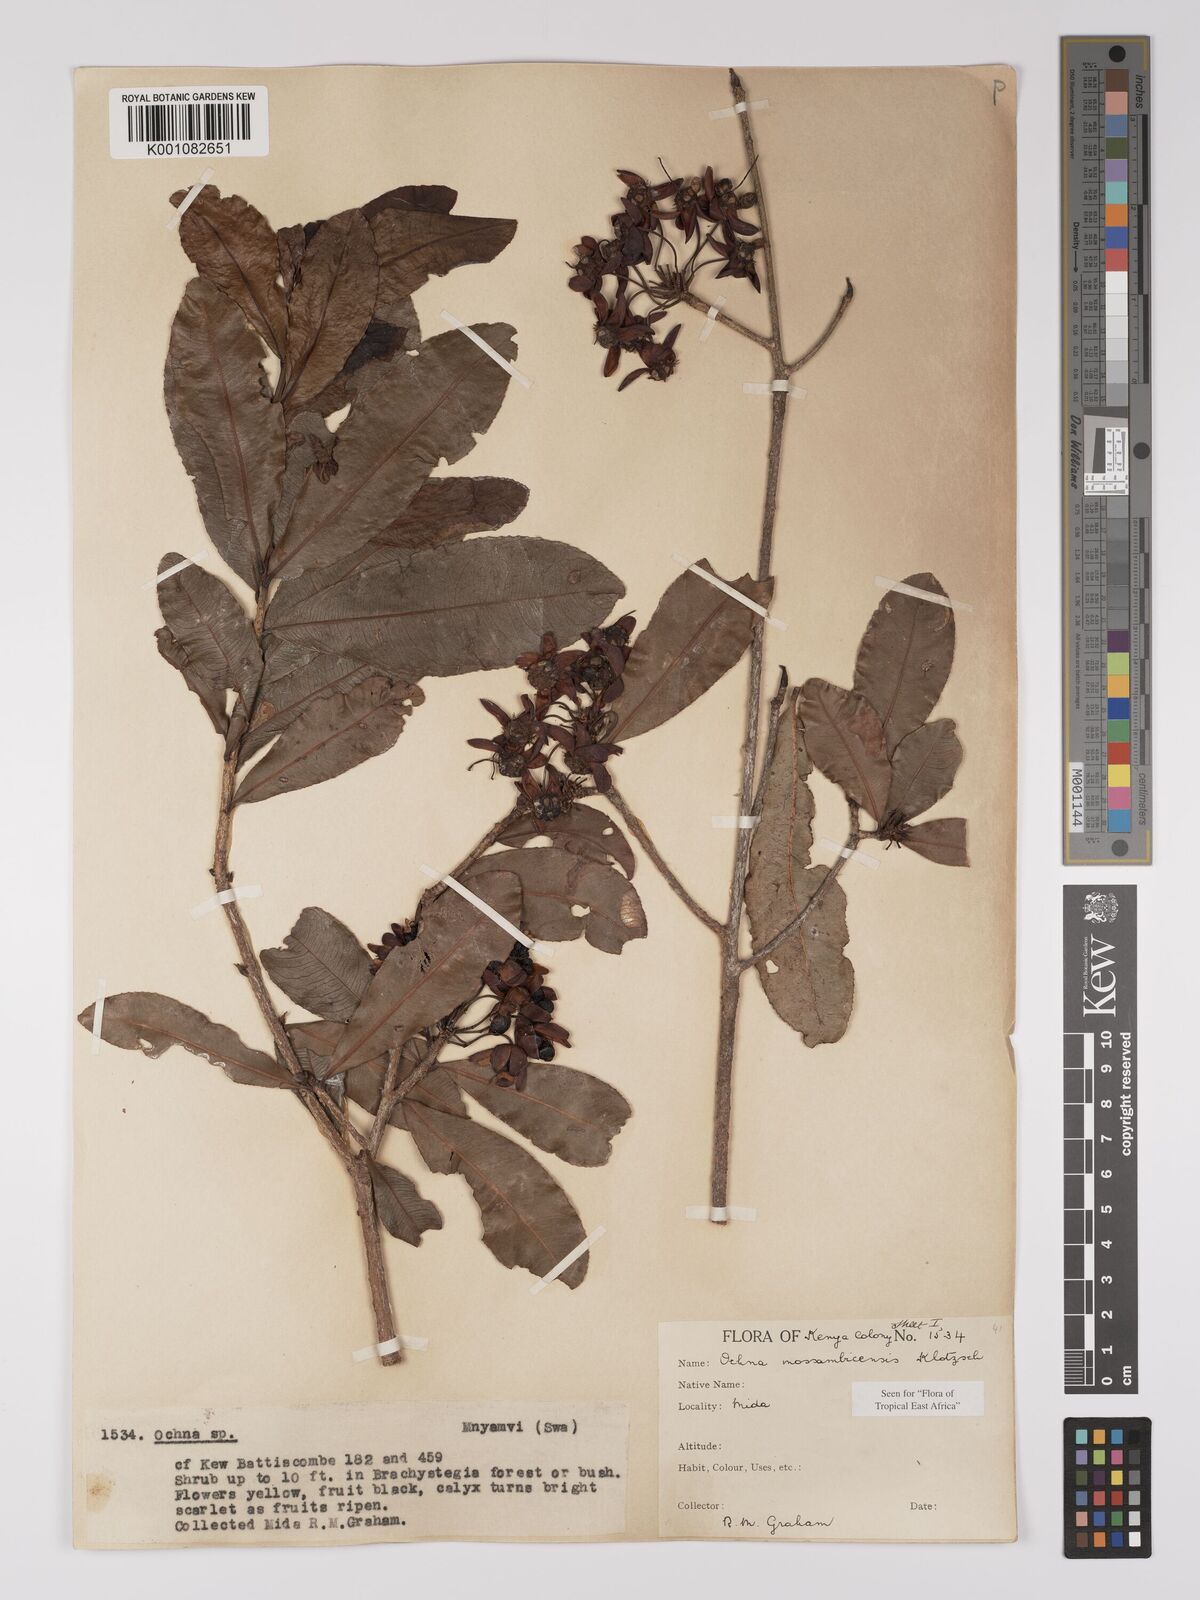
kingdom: Plantae
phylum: Tracheophyta
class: Magnoliopsida
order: Malpighiales
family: Ochnaceae
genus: Ochna
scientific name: Ochna atropurpurea
